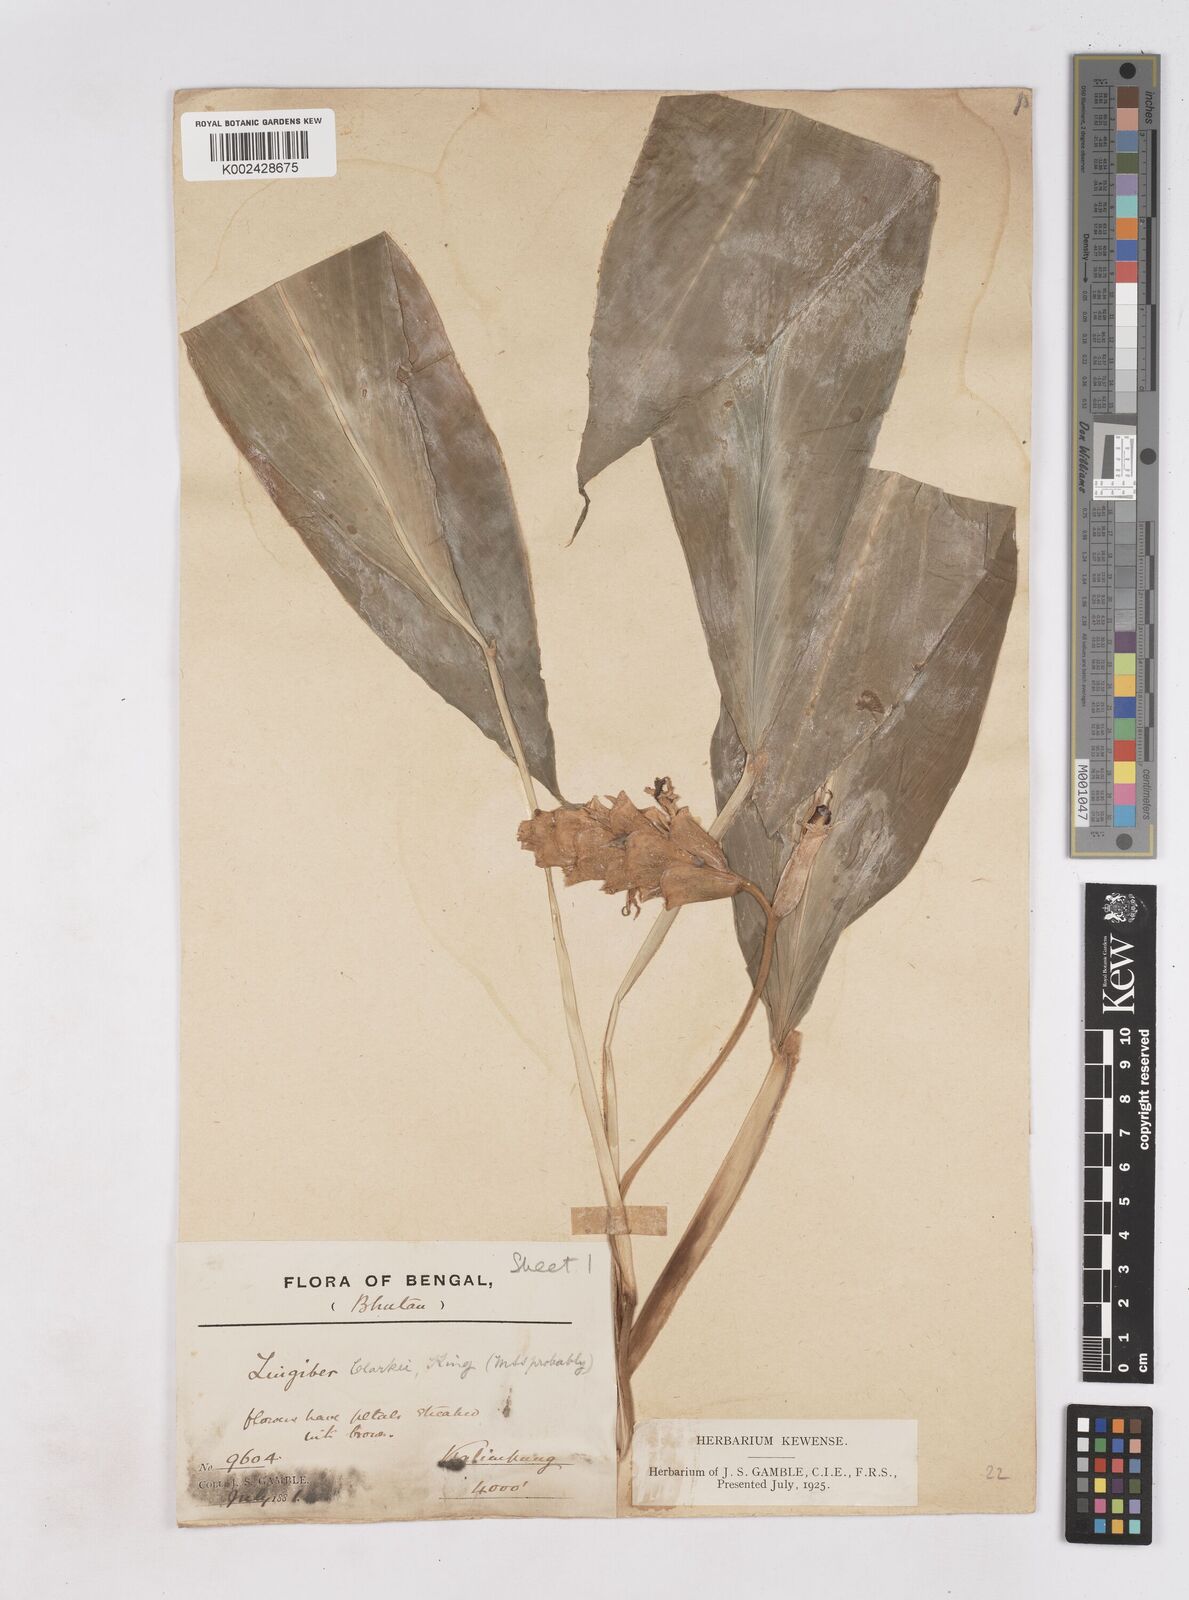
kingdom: Plantae
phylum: Tracheophyta
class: Liliopsida
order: Zingiberales
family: Zingiberaceae
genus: Zingiber
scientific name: Zingiber clarkei
